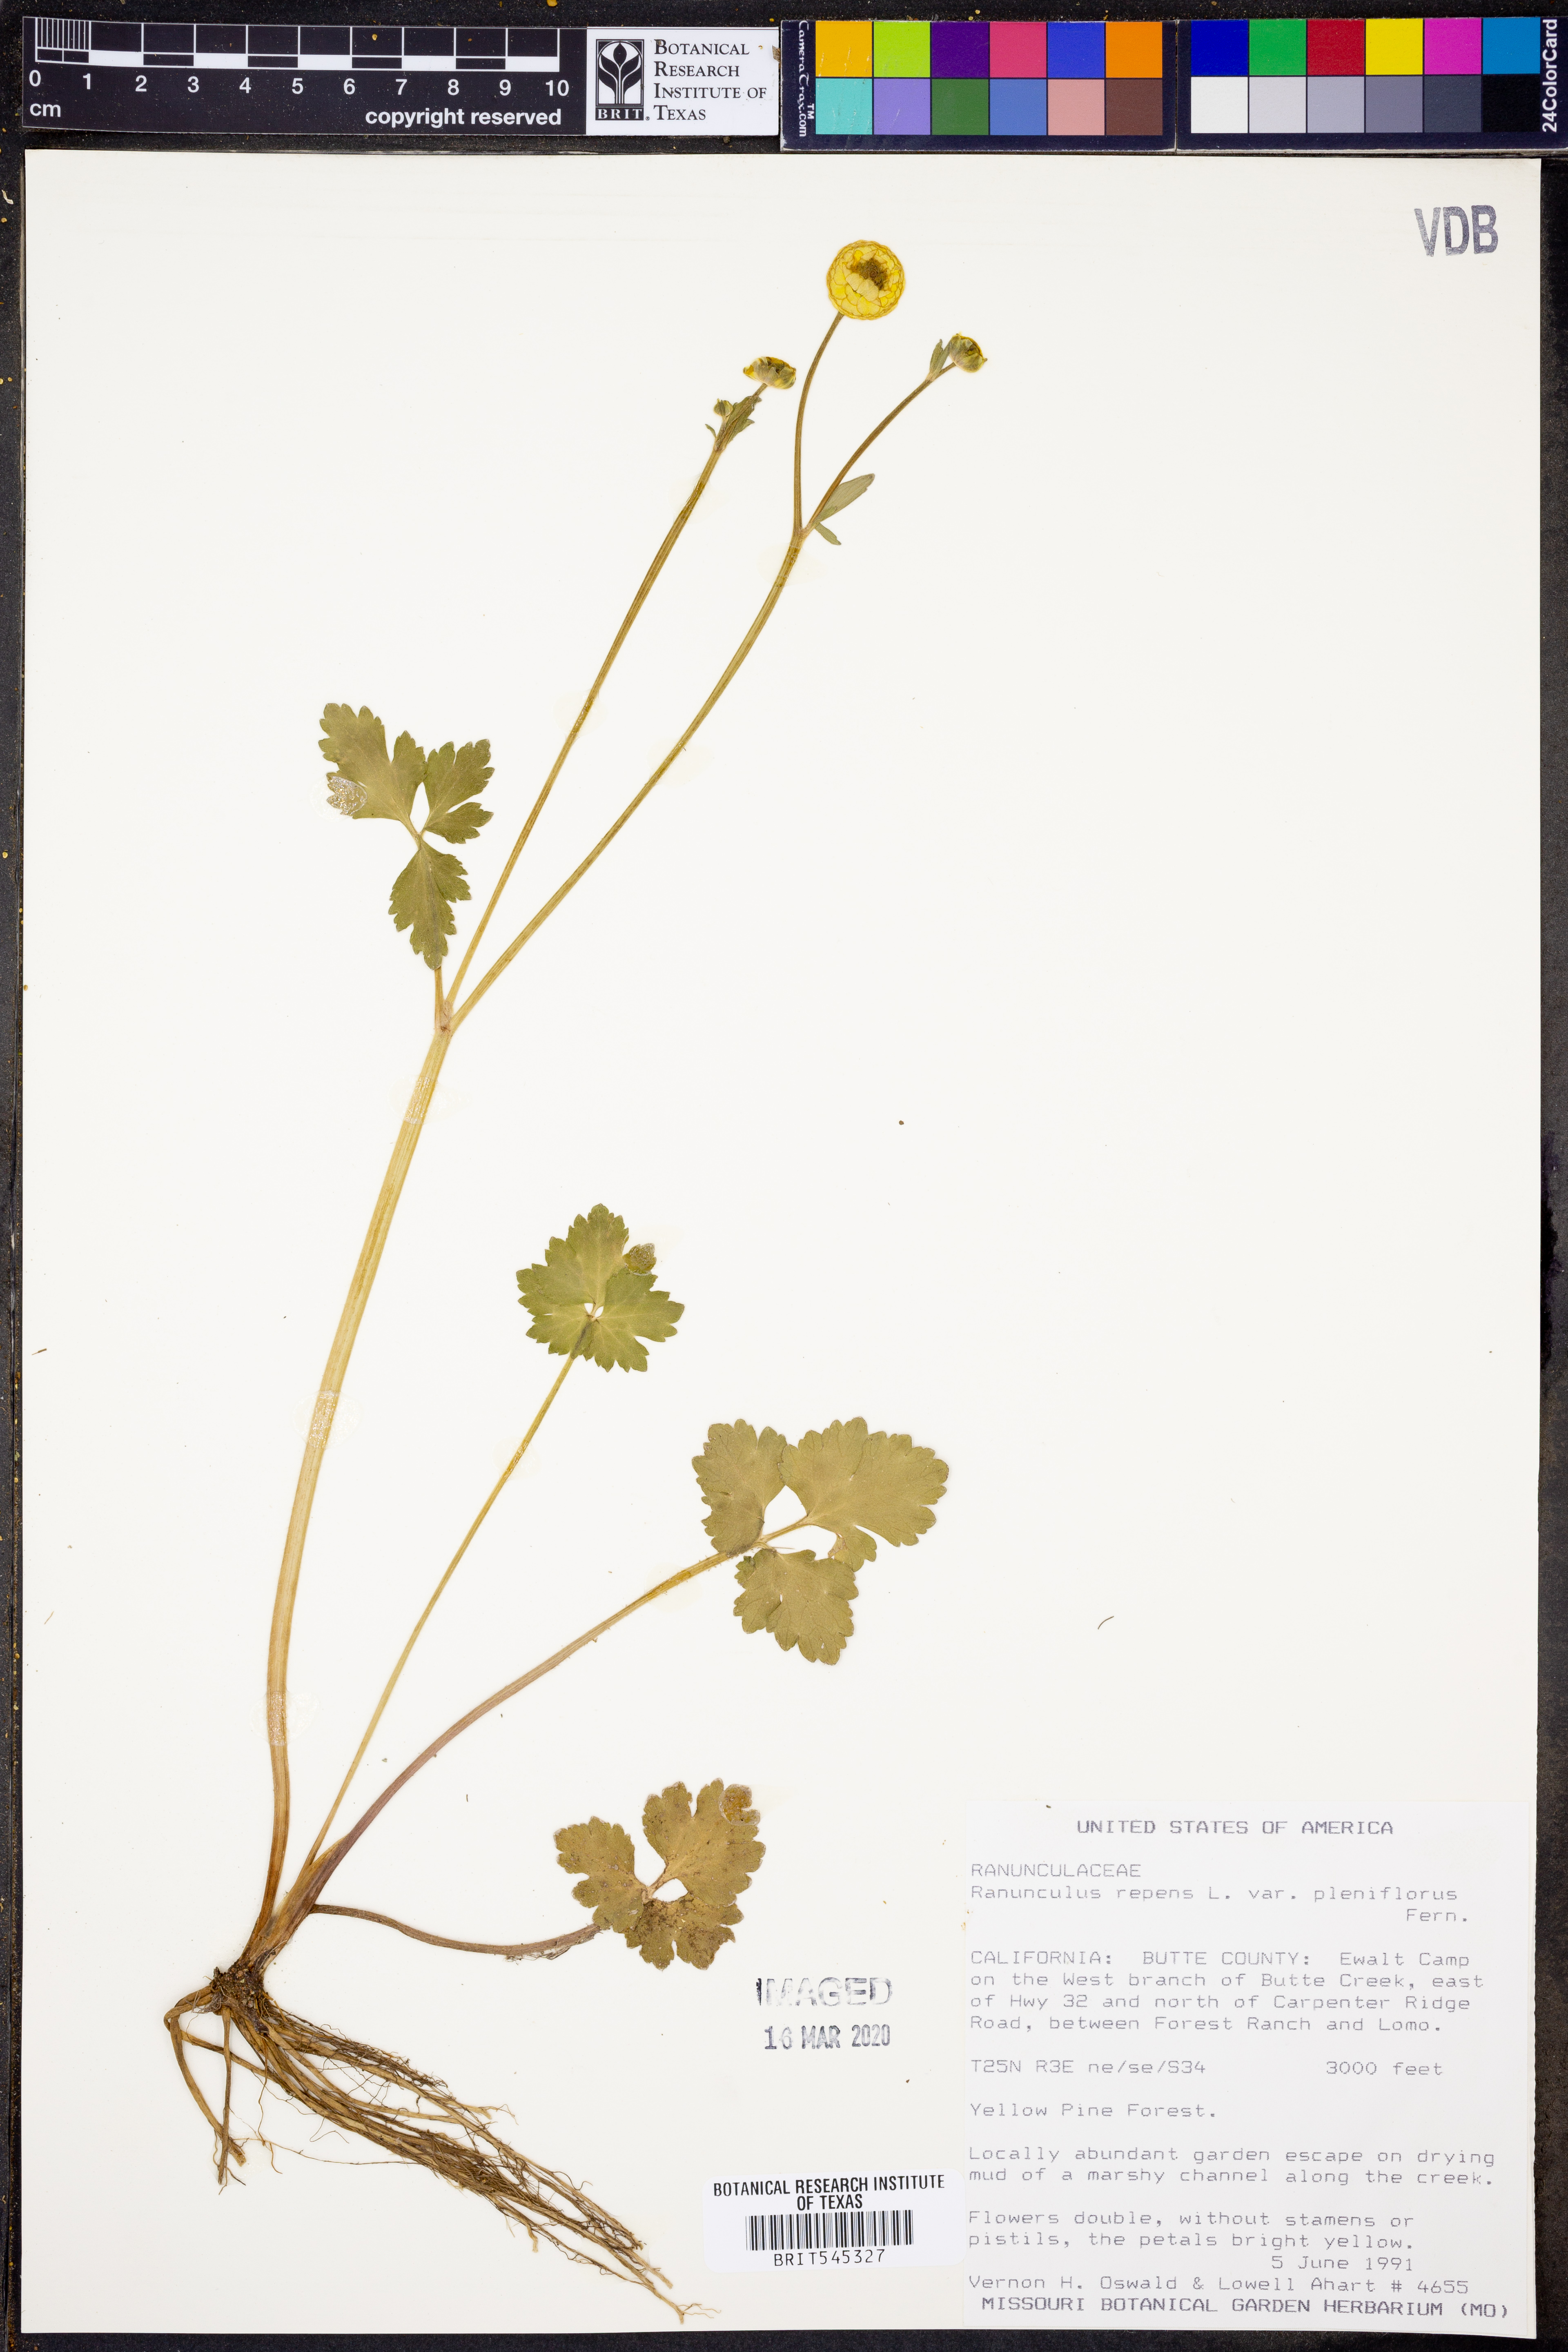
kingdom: Plantae
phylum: Tracheophyta
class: Magnoliopsida
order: Ranunculales
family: Ranunculaceae
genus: Ranunculus
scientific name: Ranunculus repens
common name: Creeping buttercup
